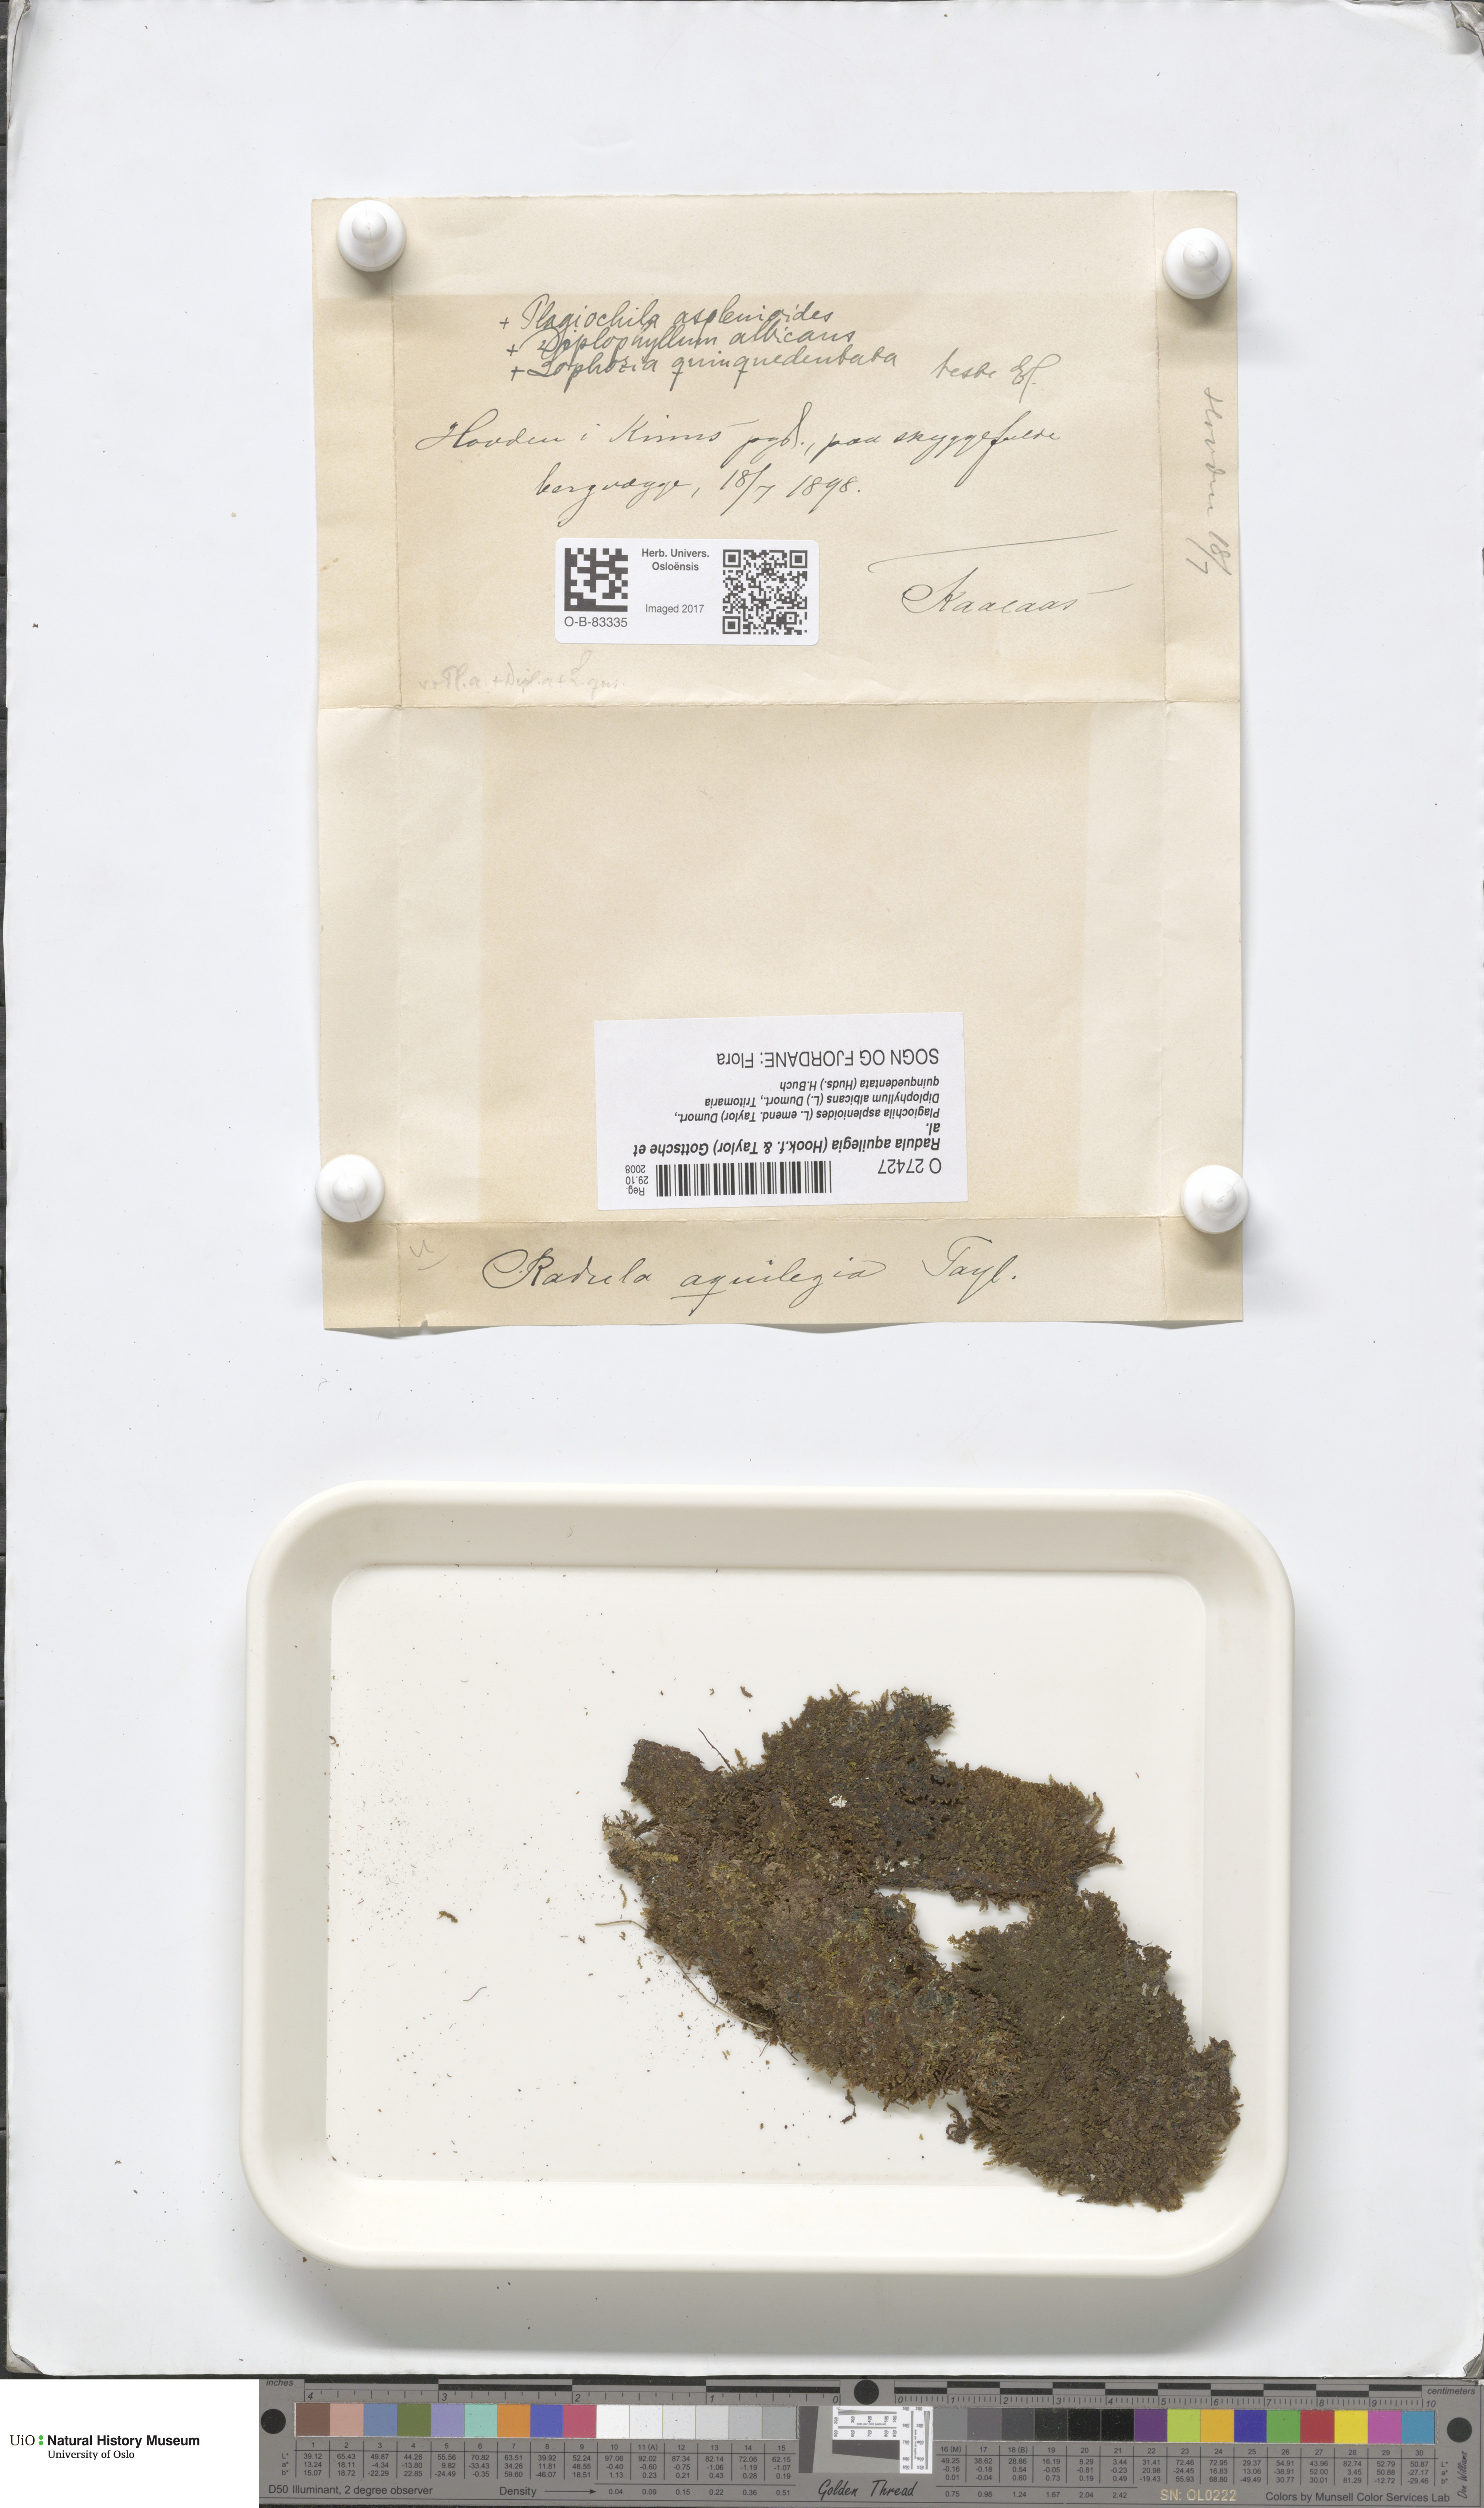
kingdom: Plantae
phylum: Marchantiophyta
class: Jungermanniopsida
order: Porellales
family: Radulaceae
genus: Radula
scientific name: Radula aquilegia
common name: Brown scalewort
